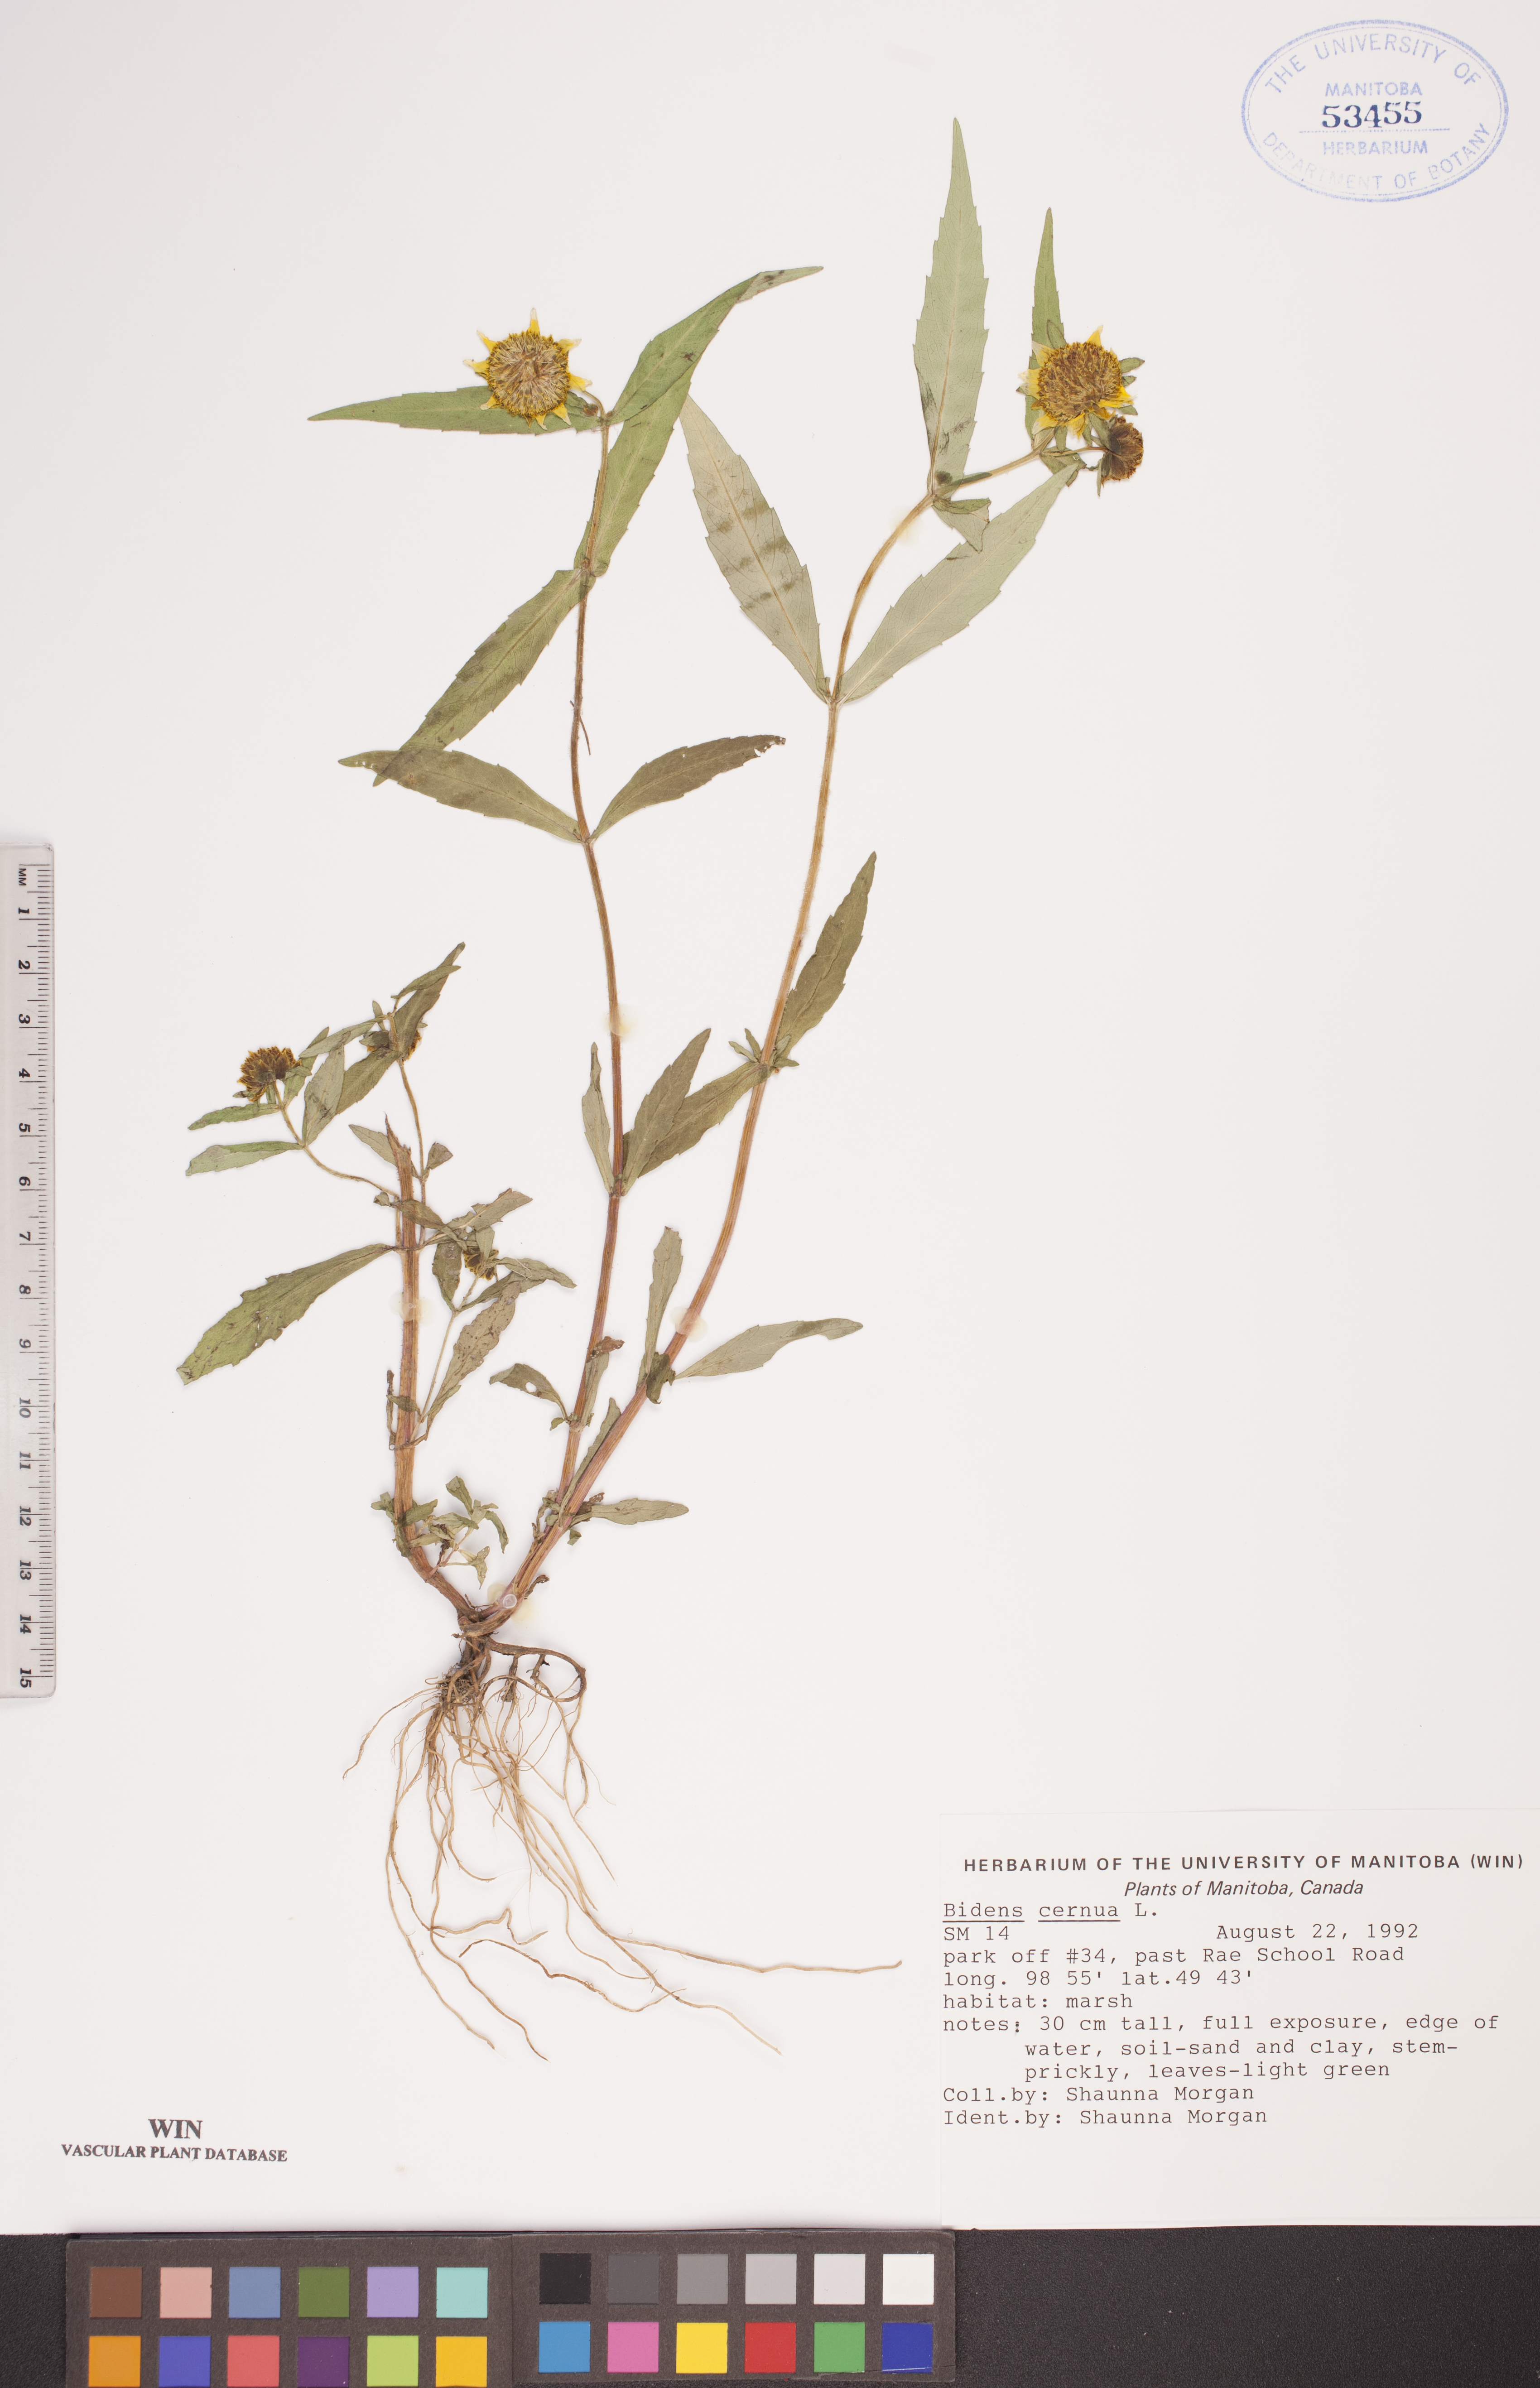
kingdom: Plantae
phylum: Tracheophyta
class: Magnoliopsida
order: Asterales
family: Asteraceae
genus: Bidens
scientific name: Bidens cernua
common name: Nodding bur-marigold
